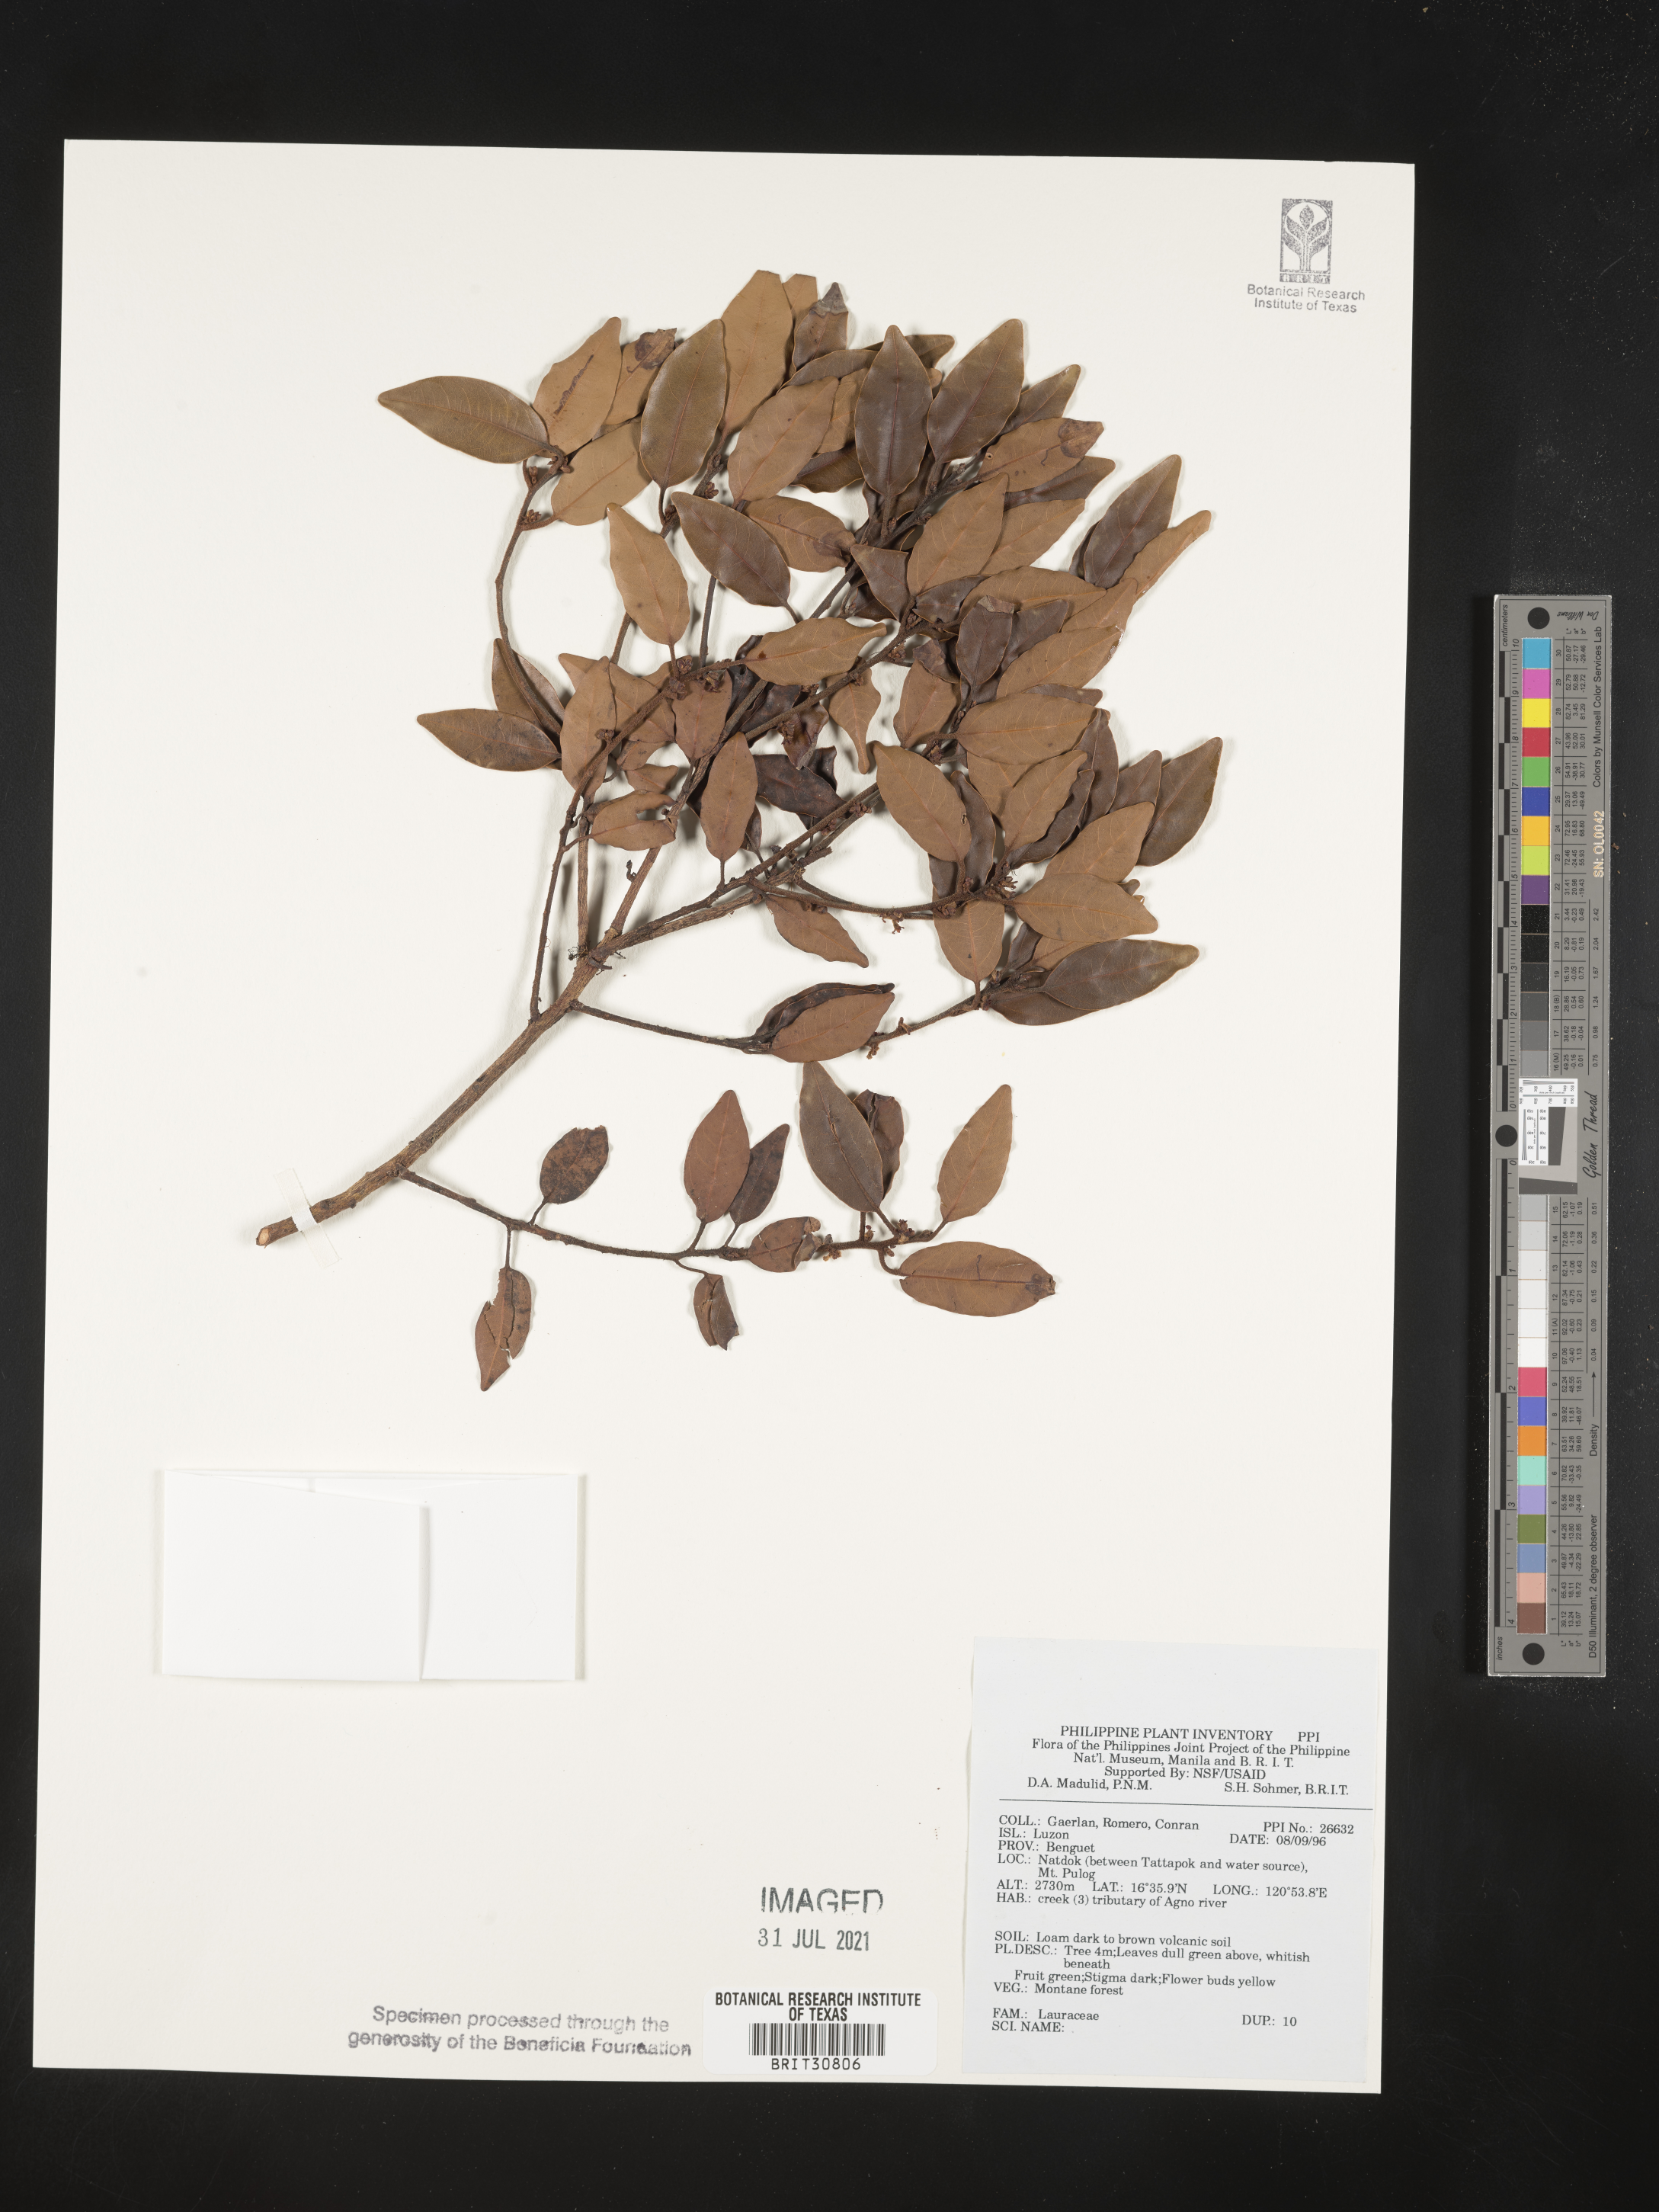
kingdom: Plantae
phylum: Tracheophyta
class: Magnoliopsida
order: Laurales
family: Lauraceae
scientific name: Lauraceae
